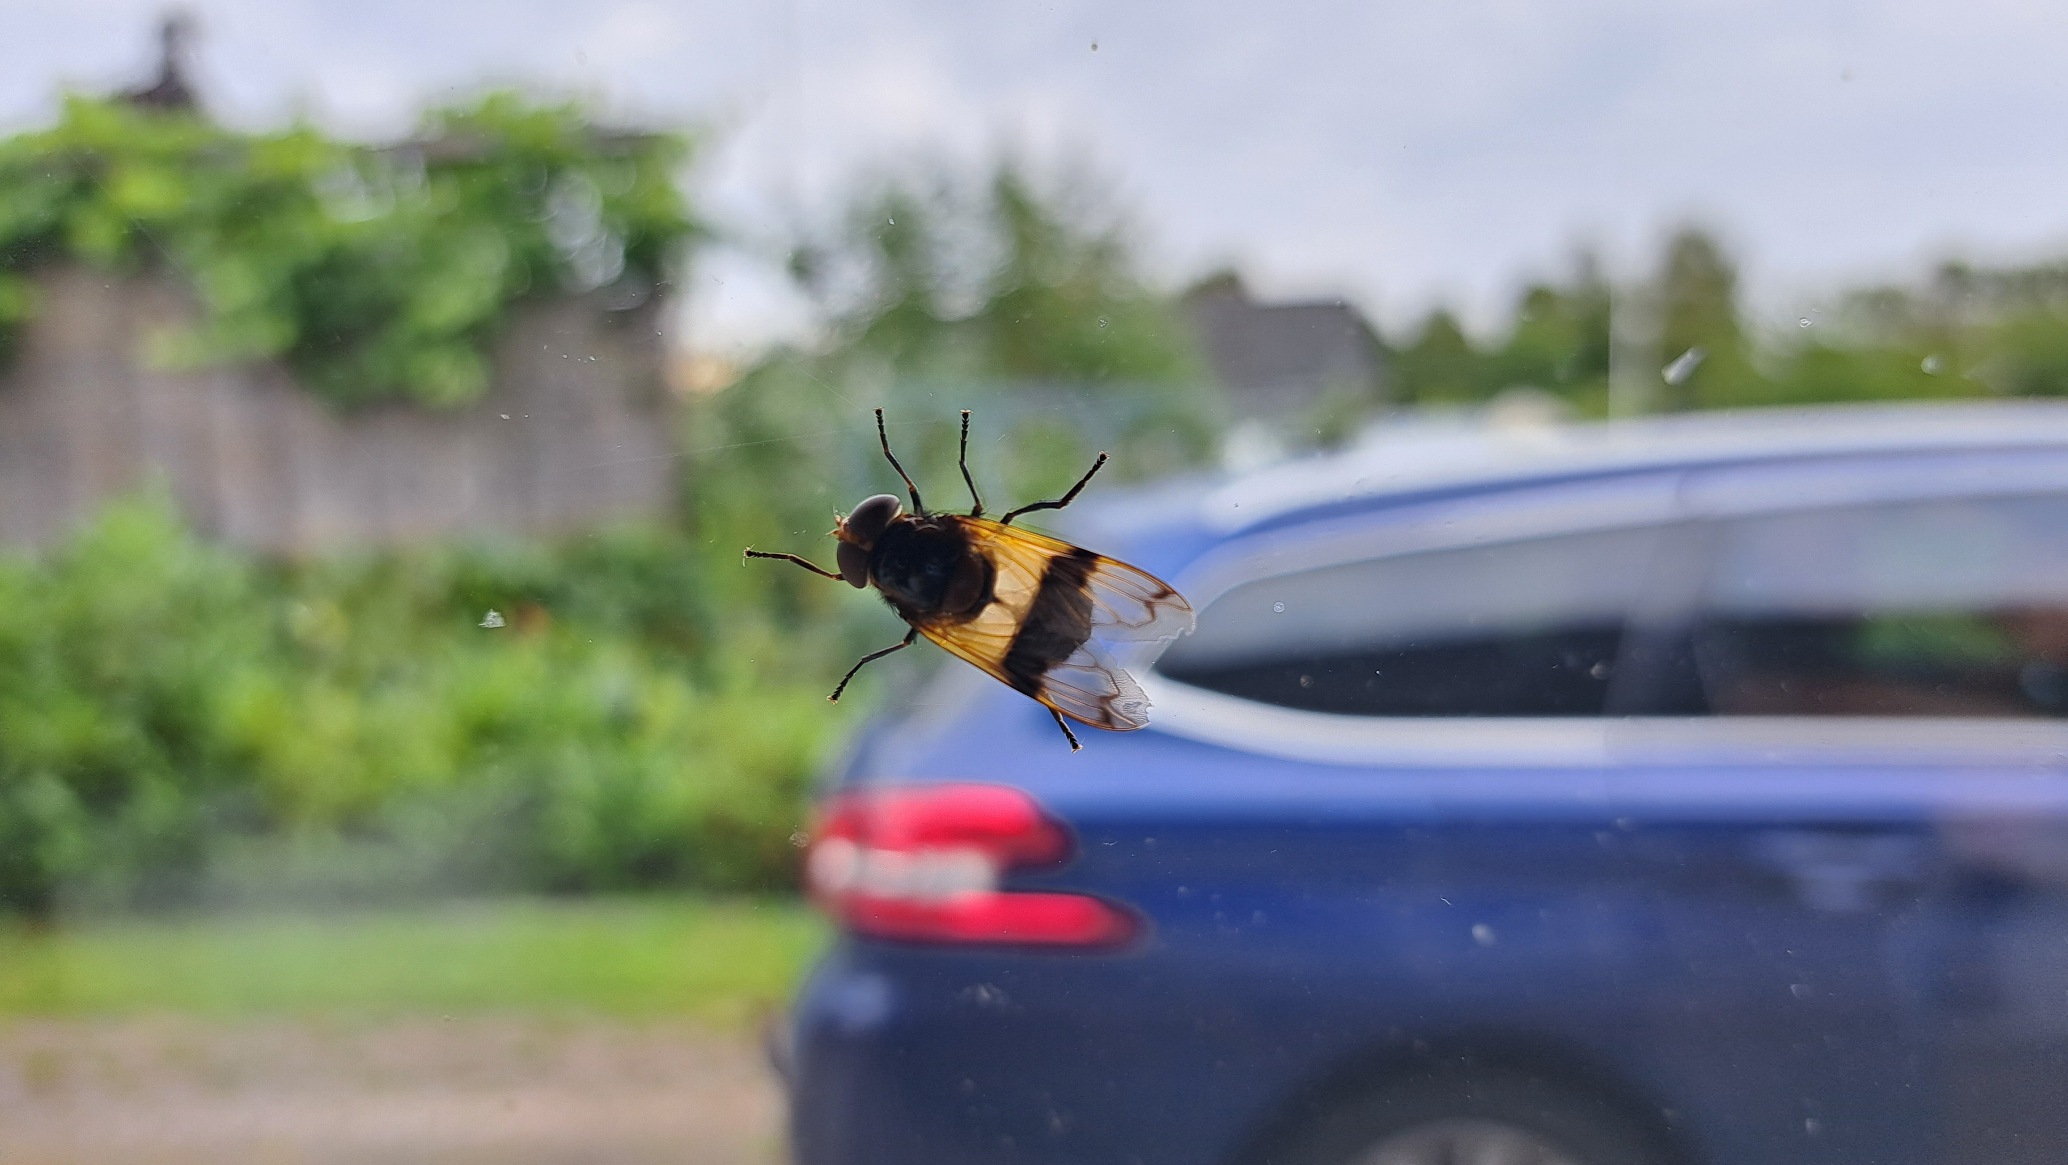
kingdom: Animalia
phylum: Arthropoda
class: Insecta
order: Diptera
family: Syrphidae
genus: Volucella
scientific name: Volucella pellucens
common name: Hvidbåndet humlesvirreflue
